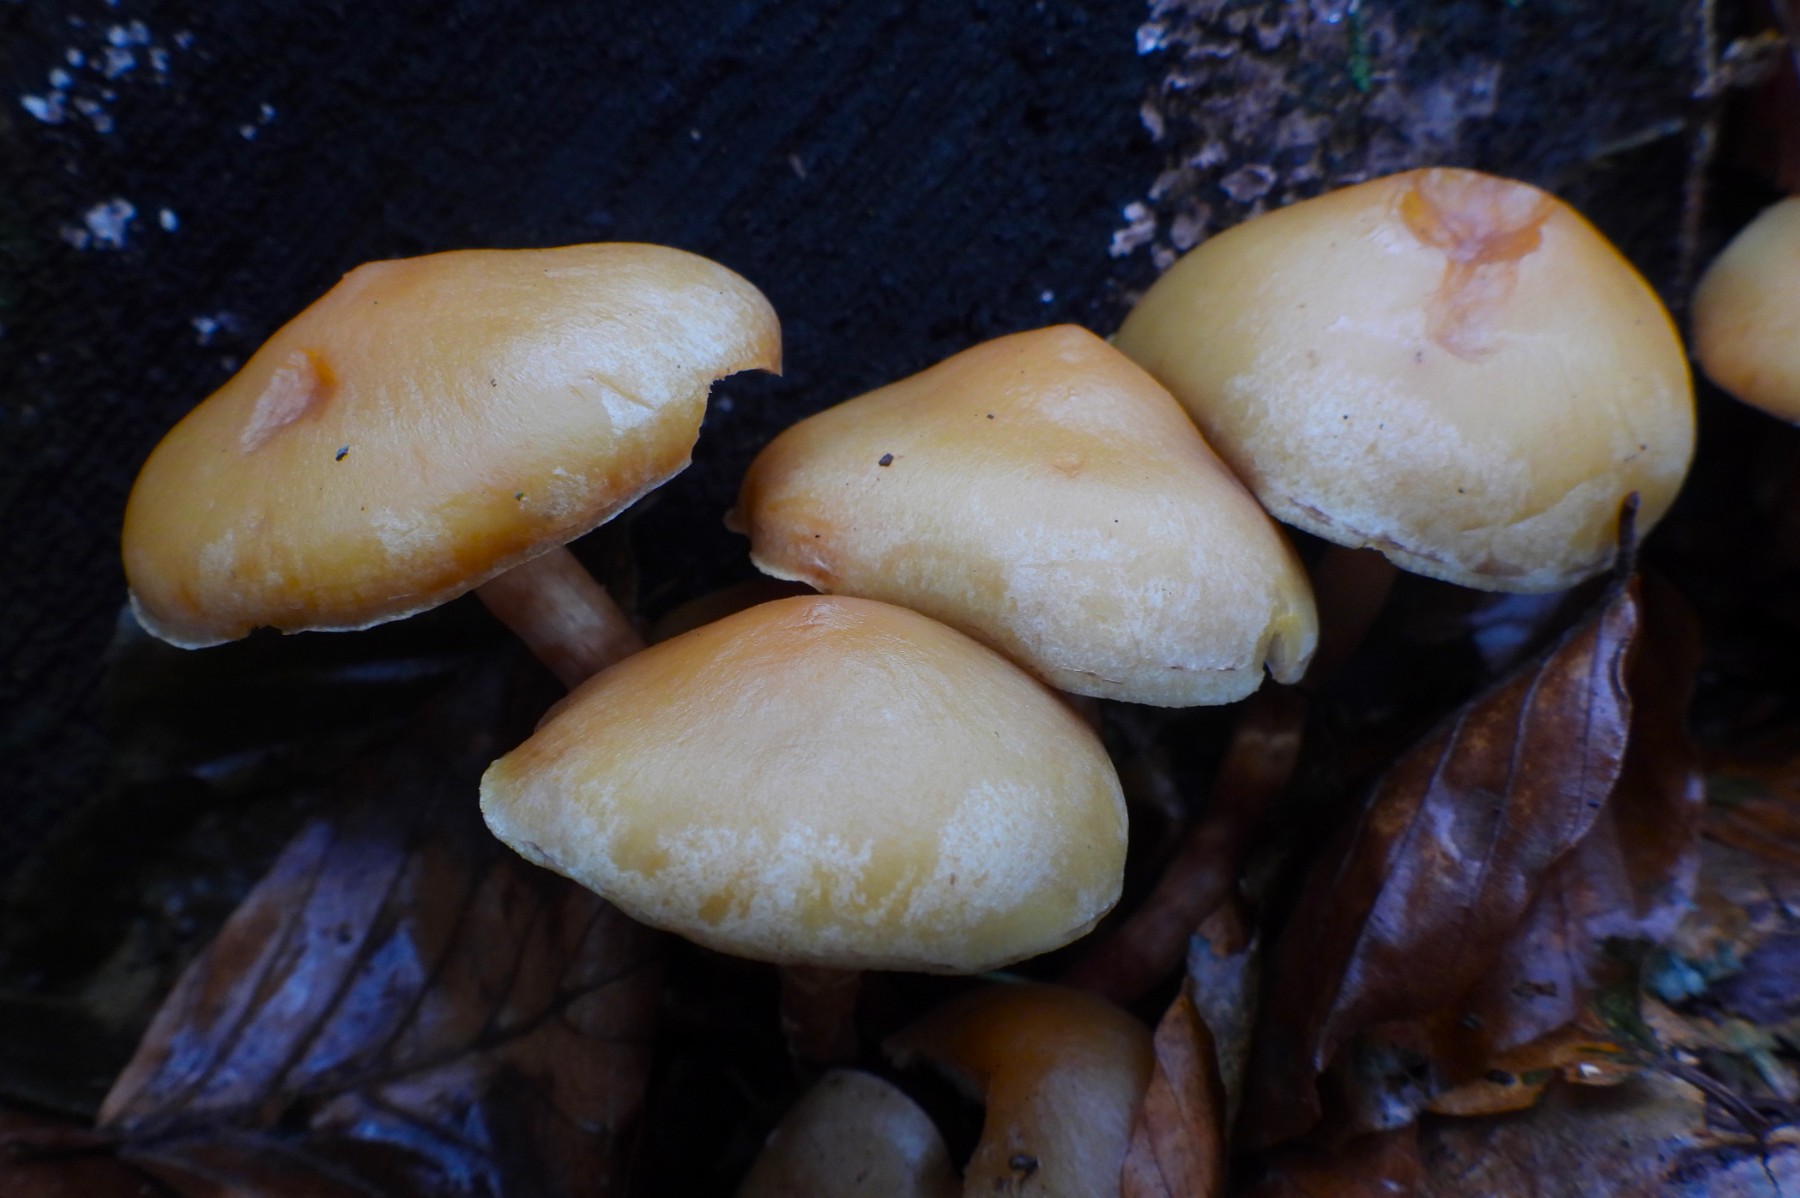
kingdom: Fungi
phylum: Basidiomycota
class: Agaricomycetes
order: Agaricales
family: Strophariaceae
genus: Kuehneromyces
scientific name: Kuehneromyces mutabilis
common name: foranderlig skælhat
